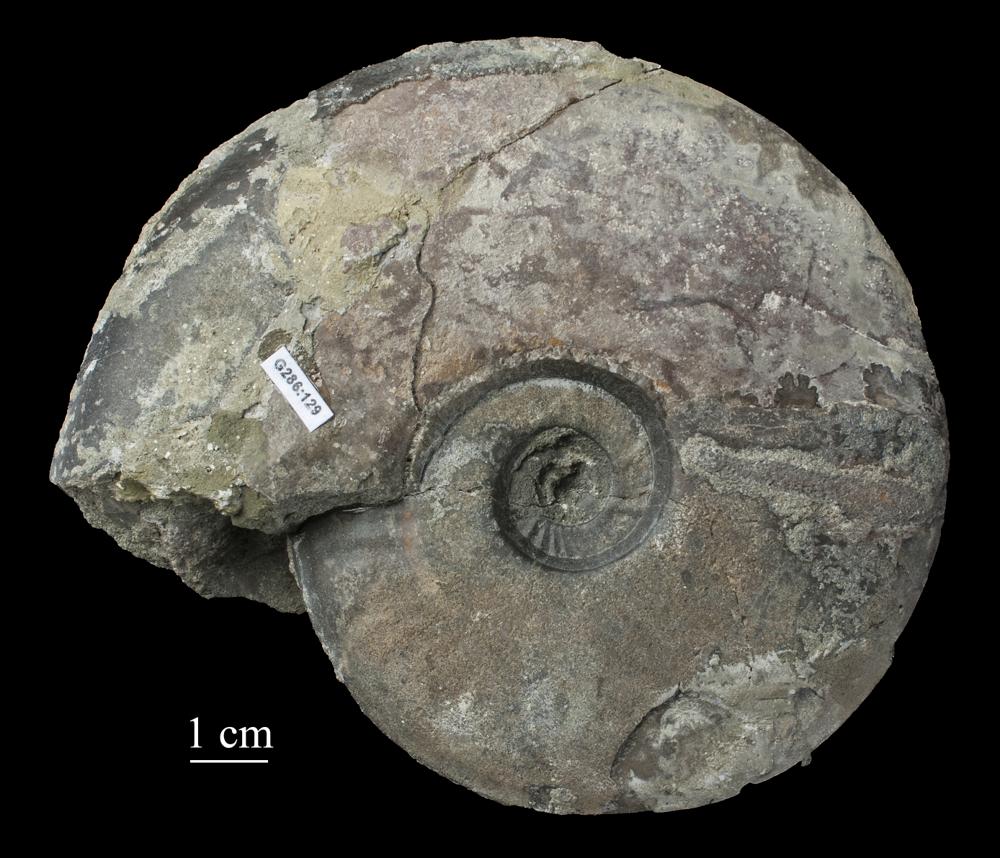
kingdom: Animalia
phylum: Mollusca
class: Cephalopoda
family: Graphoceratidae
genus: Staufenia
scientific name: Staufenia
